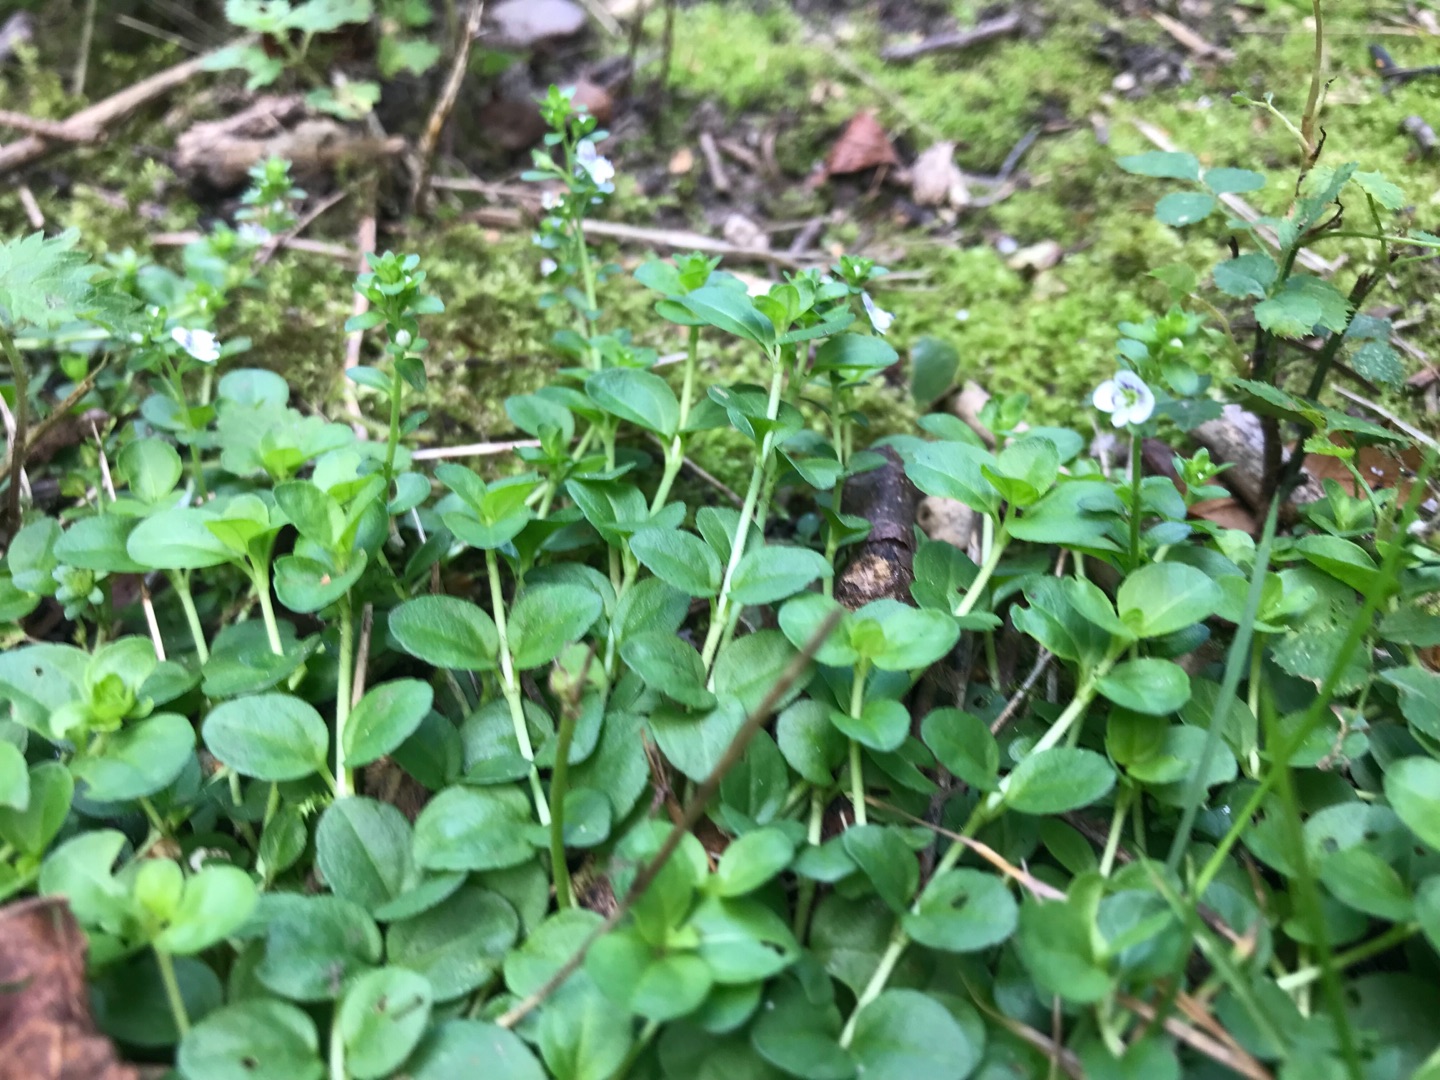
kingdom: Plantae
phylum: Tracheophyta
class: Magnoliopsida
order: Lamiales
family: Plantaginaceae
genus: Veronica
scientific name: Veronica beccabunga
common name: Tykbladet ærenpris
